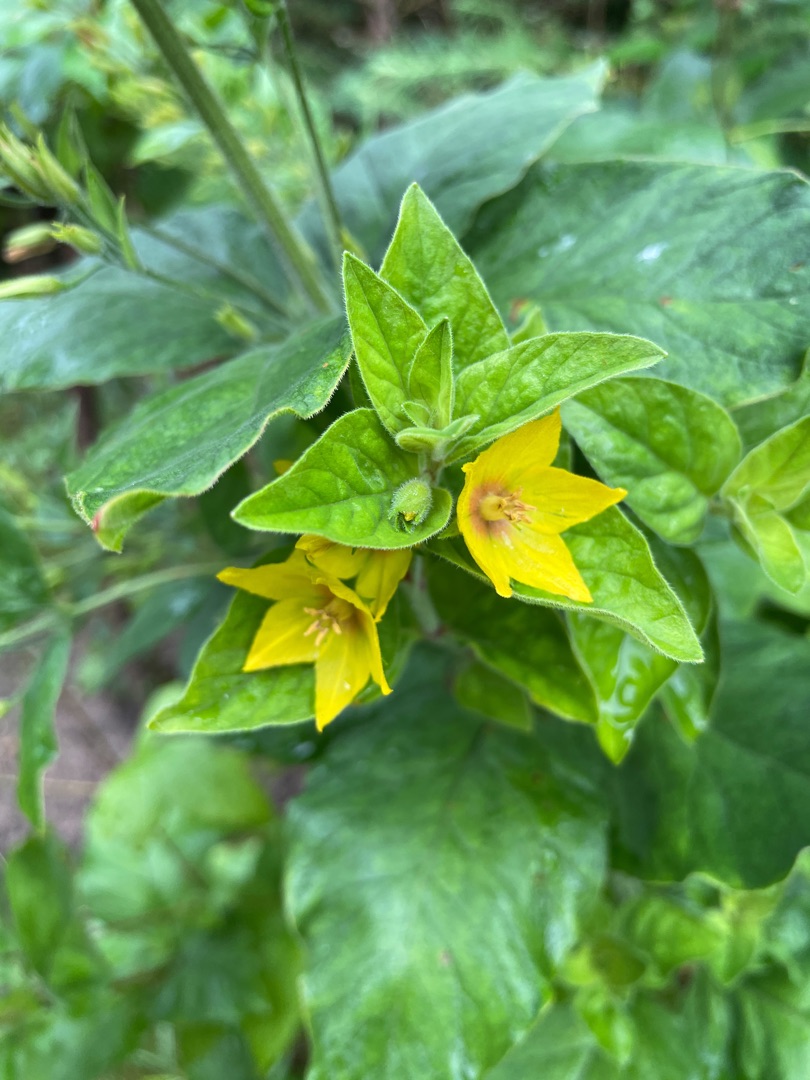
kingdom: Plantae
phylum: Tracheophyta
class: Magnoliopsida
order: Ericales
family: Primulaceae
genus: Lysimachia
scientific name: Lysimachia punctata
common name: Prikbladet fredløs
